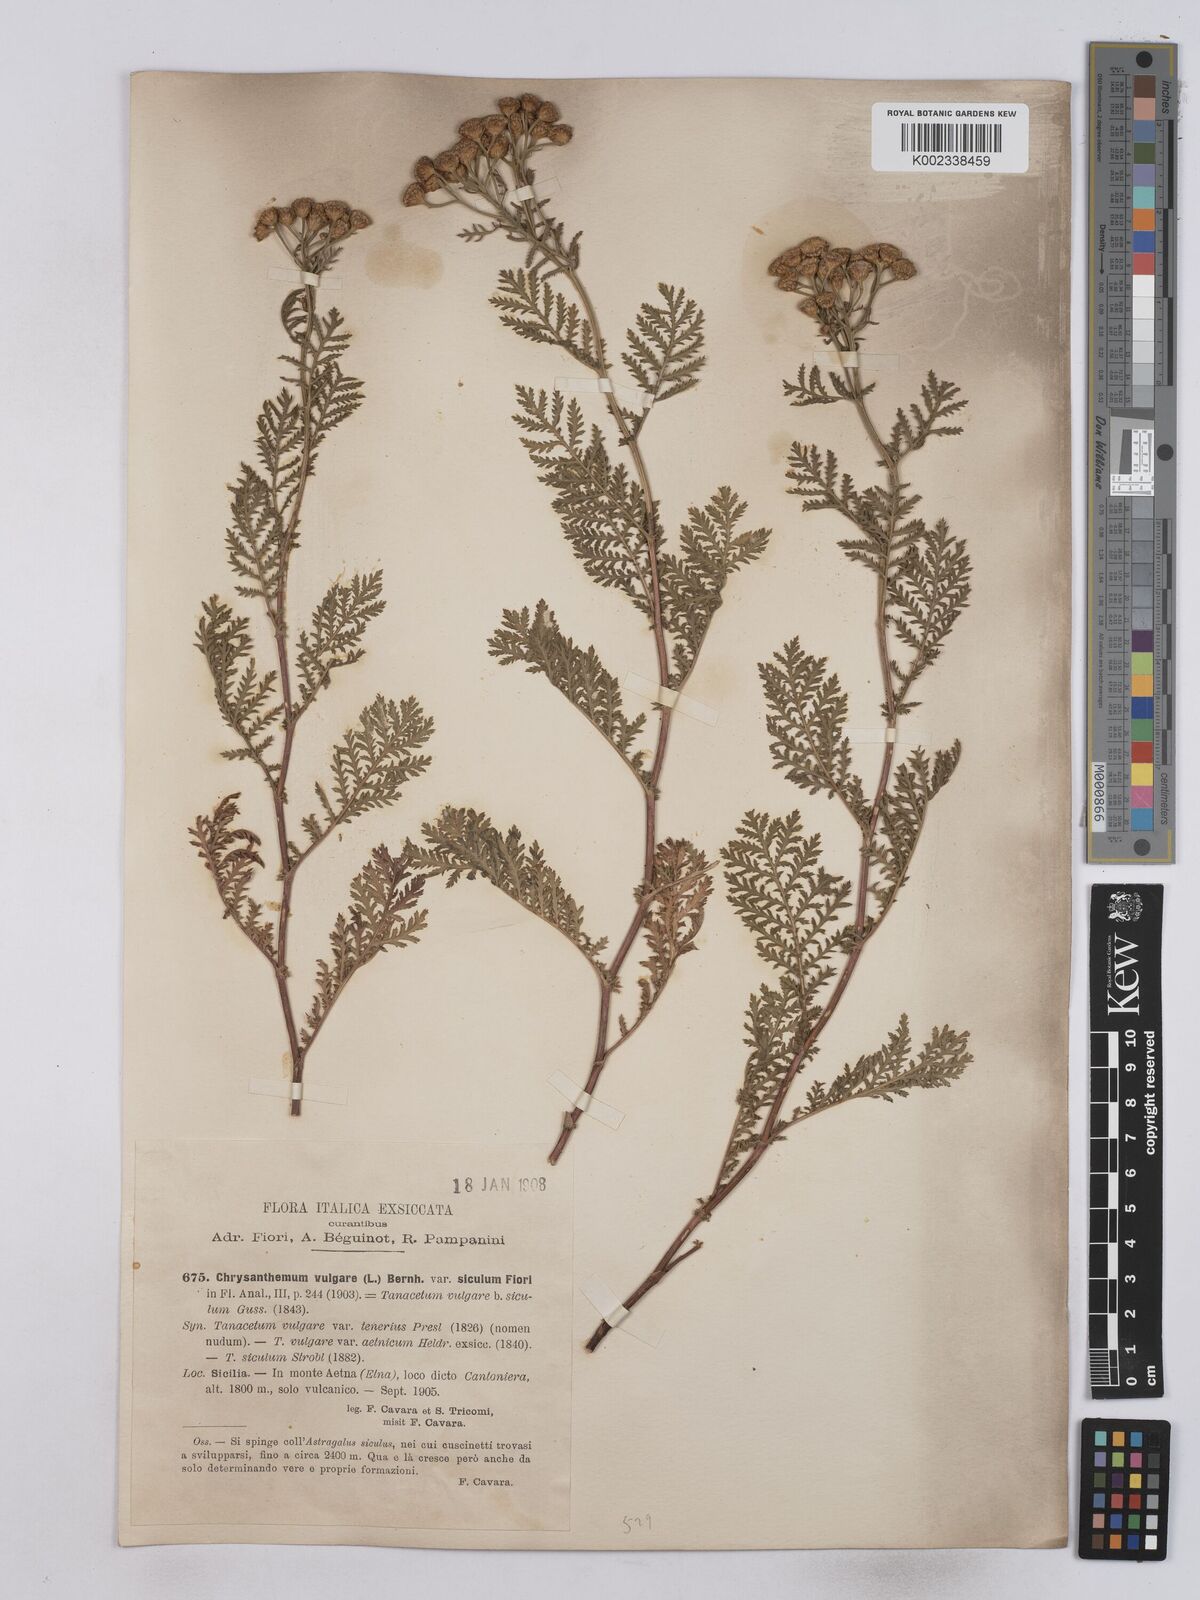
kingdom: Plantae
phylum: Tracheophyta
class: Magnoliopsida
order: Asterales
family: Asteraceae
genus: Tanacetum
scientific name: Tanacetum vulgare
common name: Common tansy
